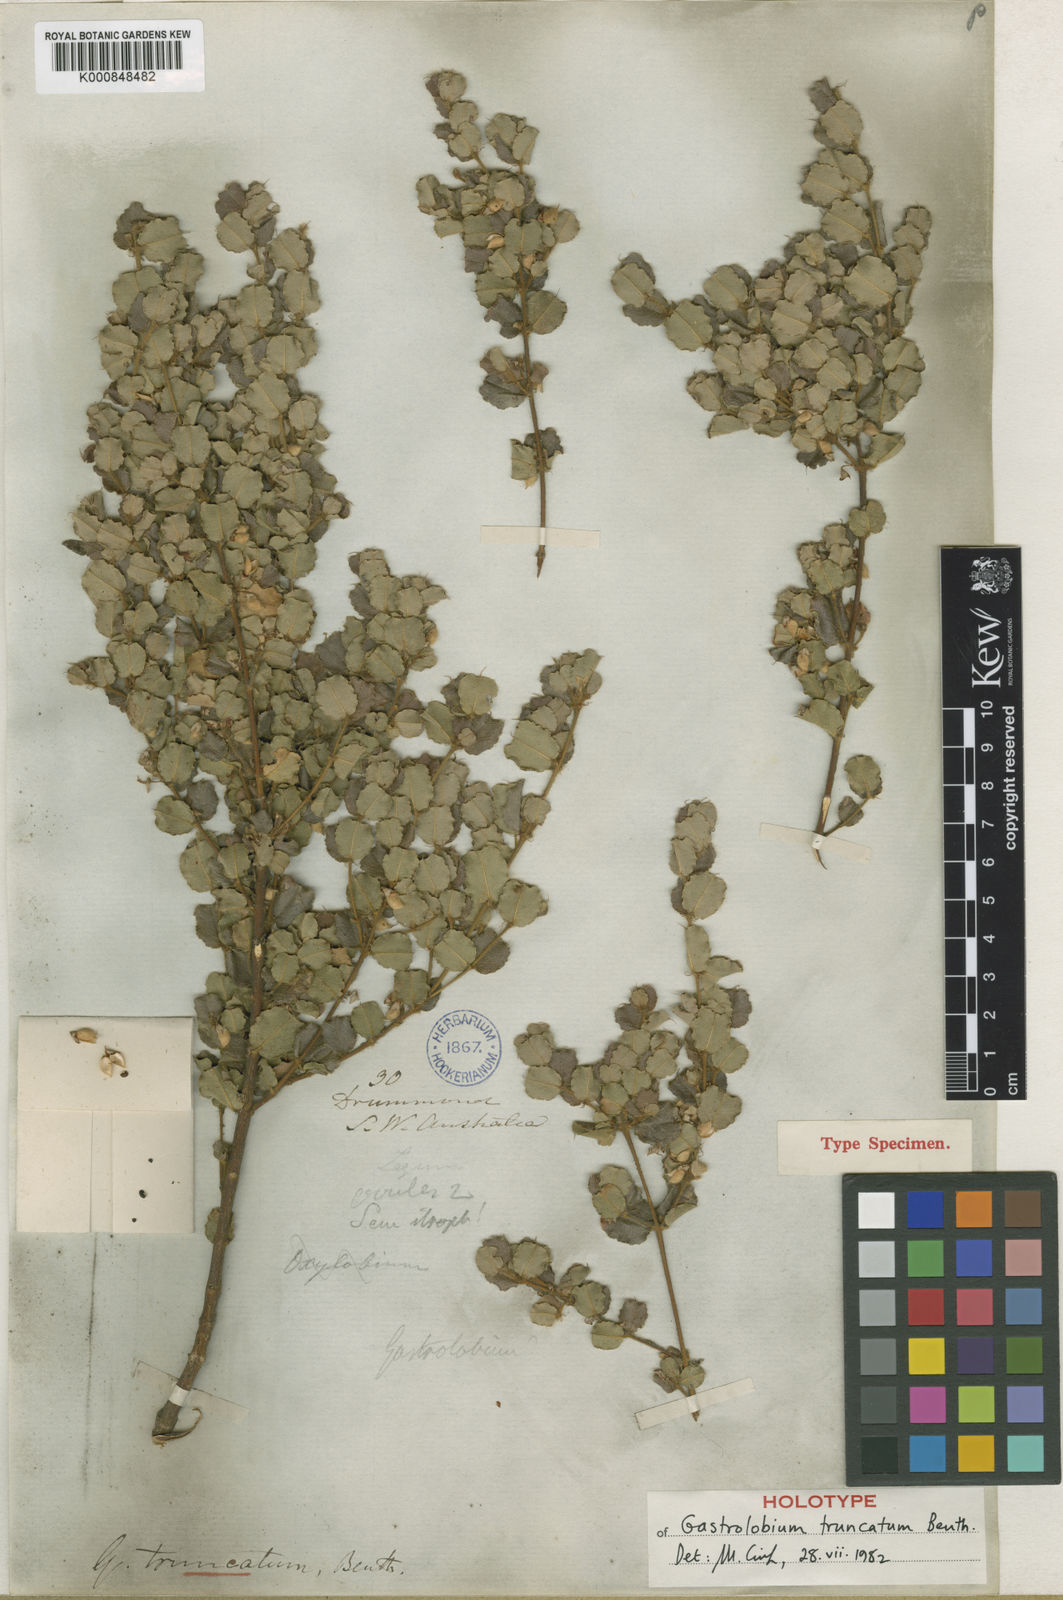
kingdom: Plantae
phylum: Tracheophyta
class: Magnoliopsida
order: Fabales
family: Fabaceae
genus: Gastrolobium
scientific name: Gastrolobium truncatum
